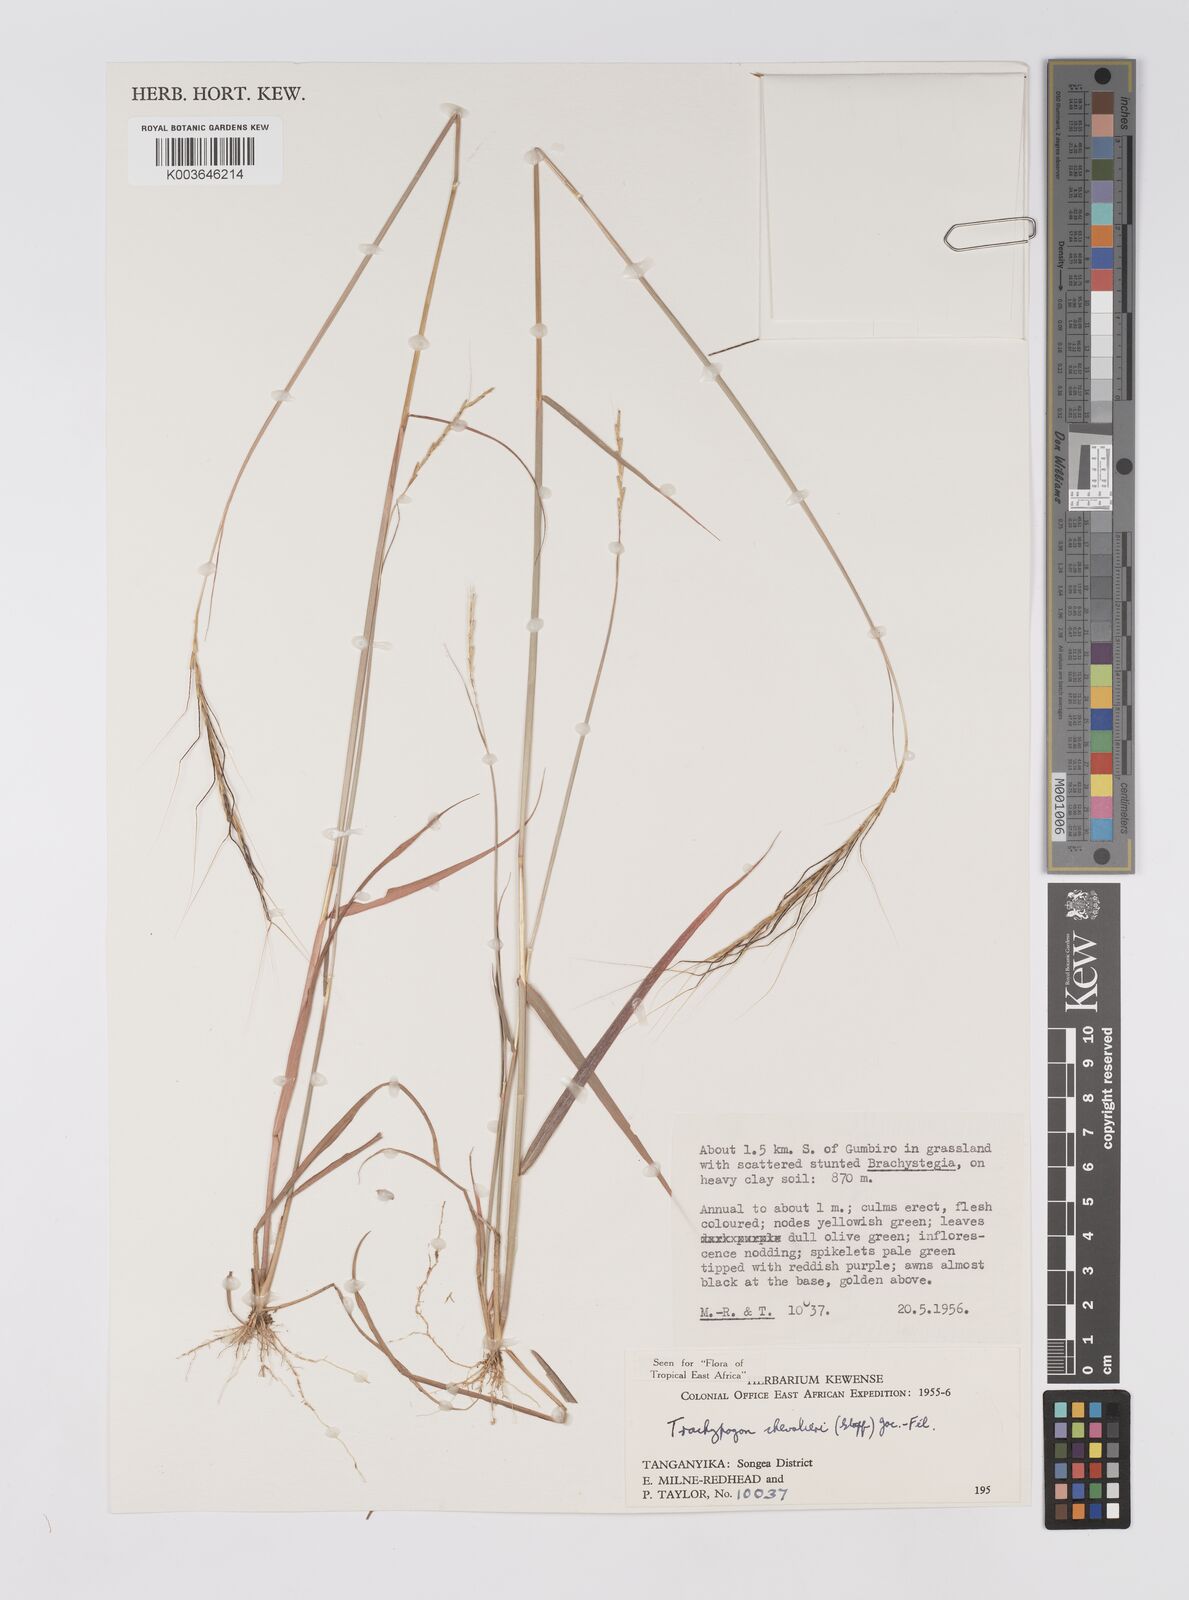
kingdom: Plantae
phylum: Tracheophyta
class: Liliopsida
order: Poales
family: Poaceae
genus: Trachypogon
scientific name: Trachypogon chevalieri
